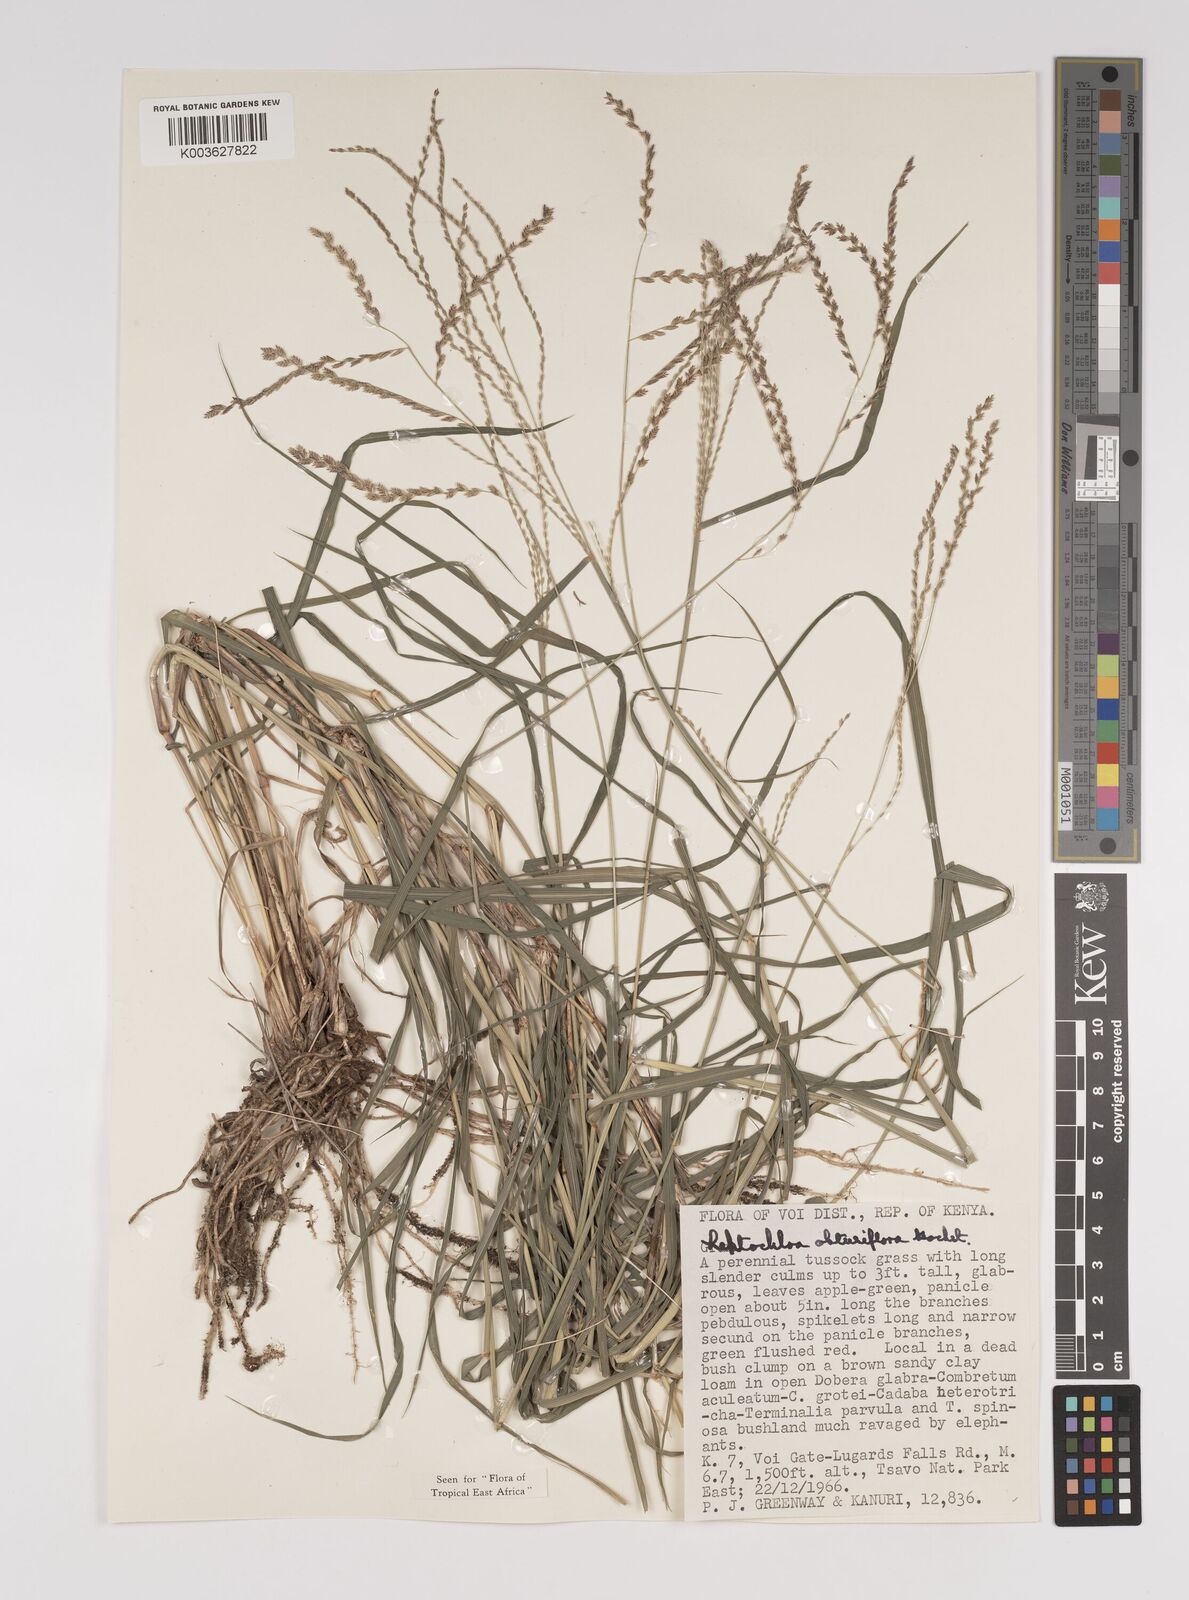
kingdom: Plantae
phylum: Tracheophyta
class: Liliopsida
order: Poales
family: Poaceae
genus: Disakisperma
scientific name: Disakisperma obtusiflorum
